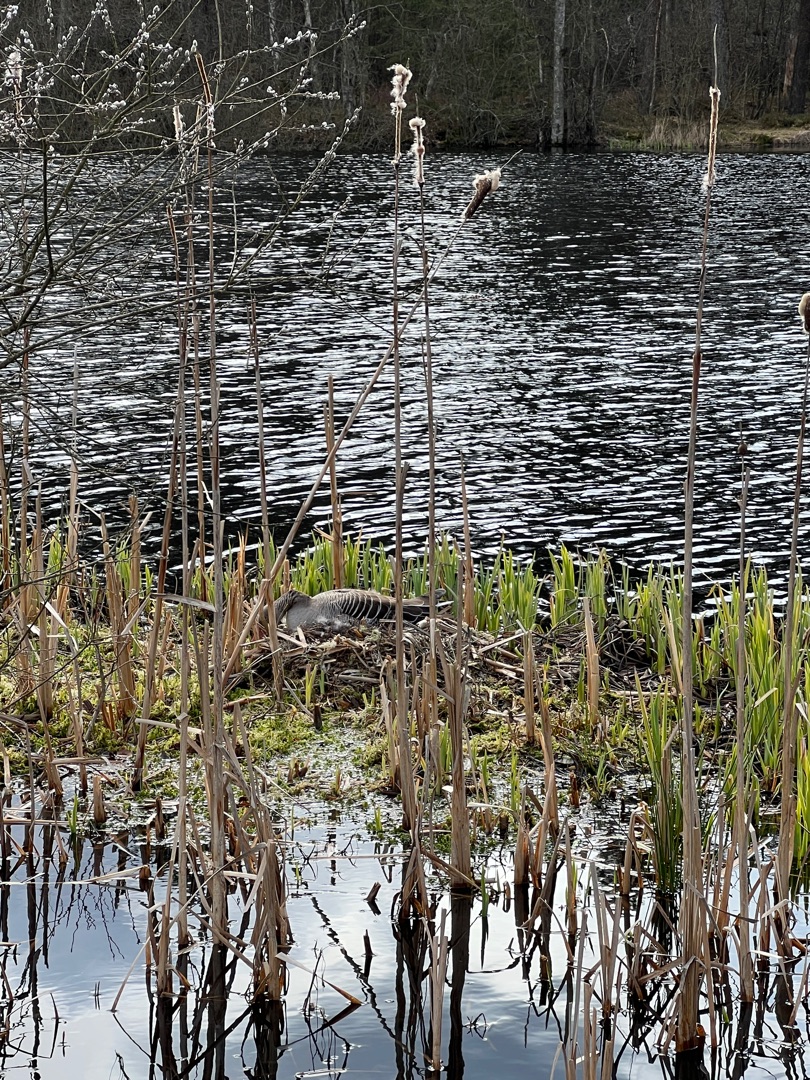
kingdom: Animalia
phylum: Chordata
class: Aves
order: Anseriformes
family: Anatidae
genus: Anser
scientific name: Anser anser
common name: Grågås
